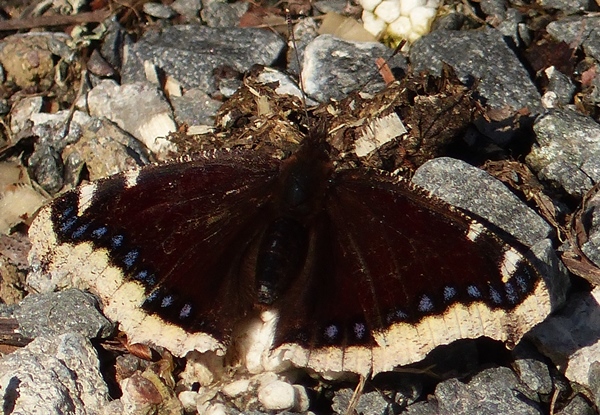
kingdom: Animalia
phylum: Arthropoda
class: Insecta
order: Lepidoptera
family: Nymphalidae
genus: Nymphalis
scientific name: Nymphalis antiopa
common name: Camberwell beauty
